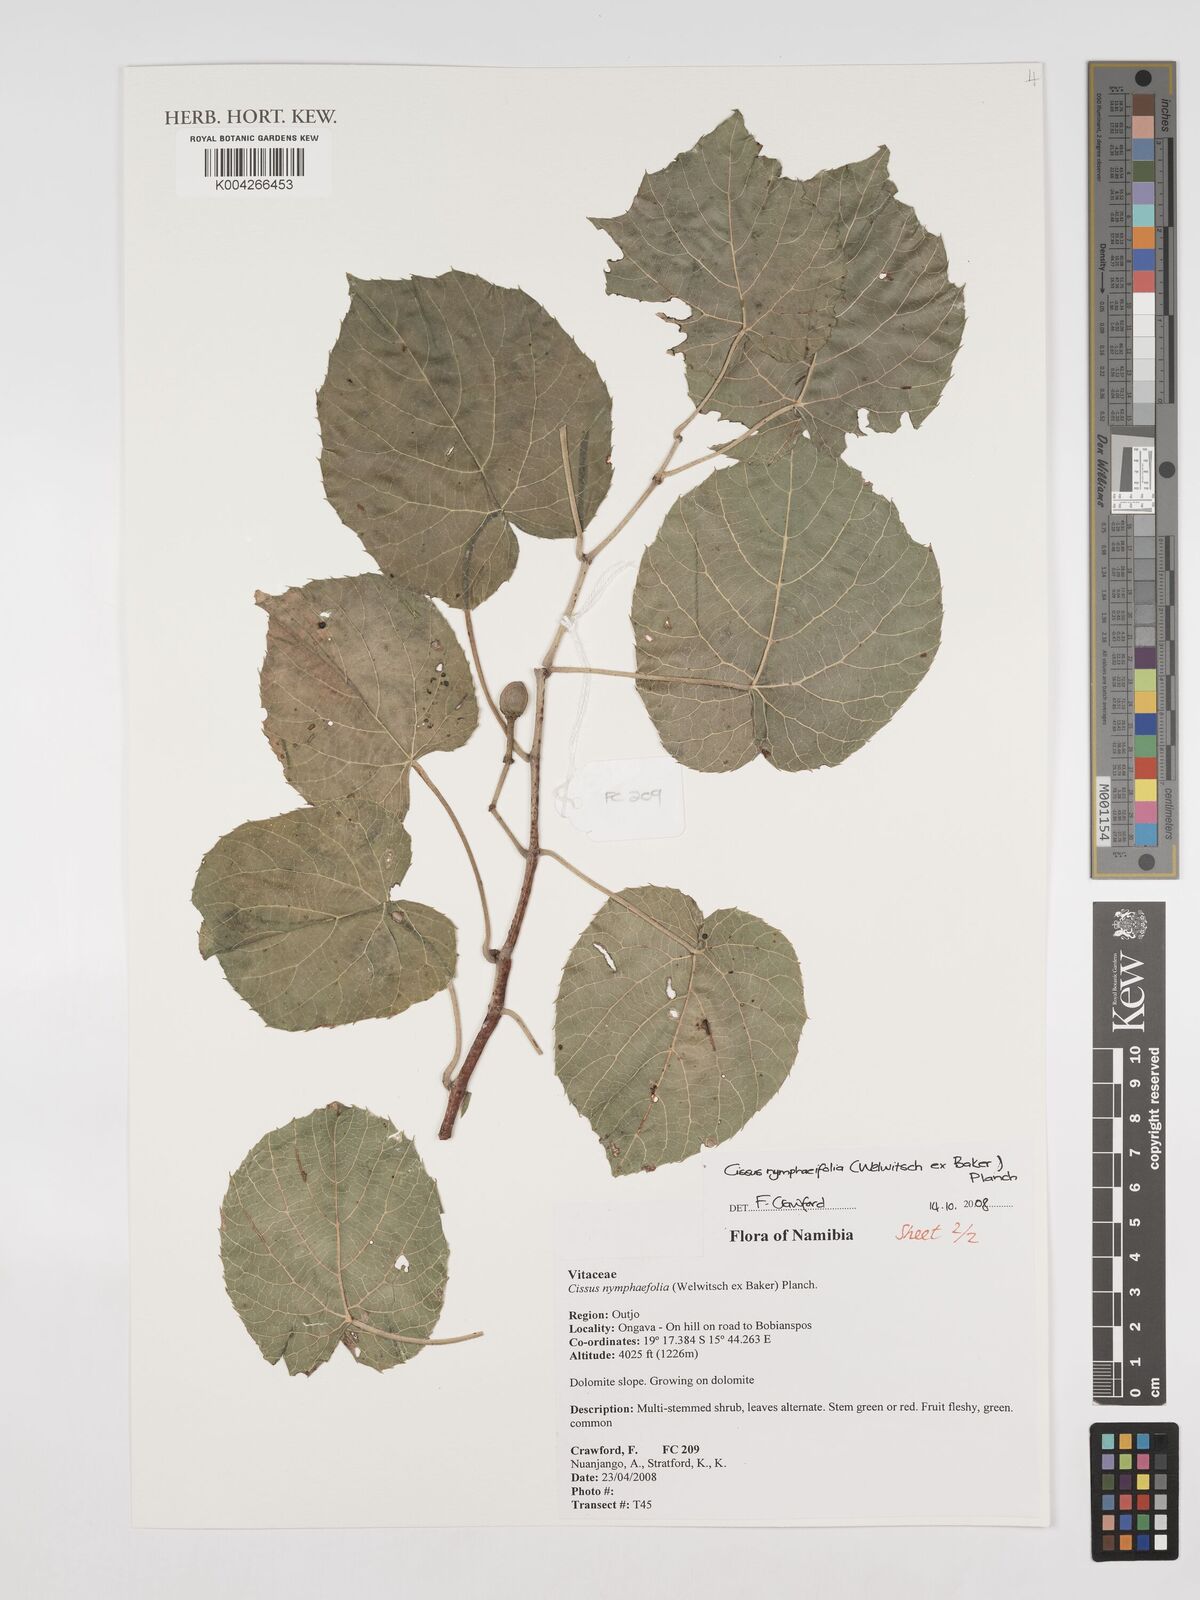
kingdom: Plantae
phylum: Tracheophyta
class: Magnoliopsida
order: Vitales
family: Vitaceae
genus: Cissus
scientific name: Cissus nymphaeifolia
